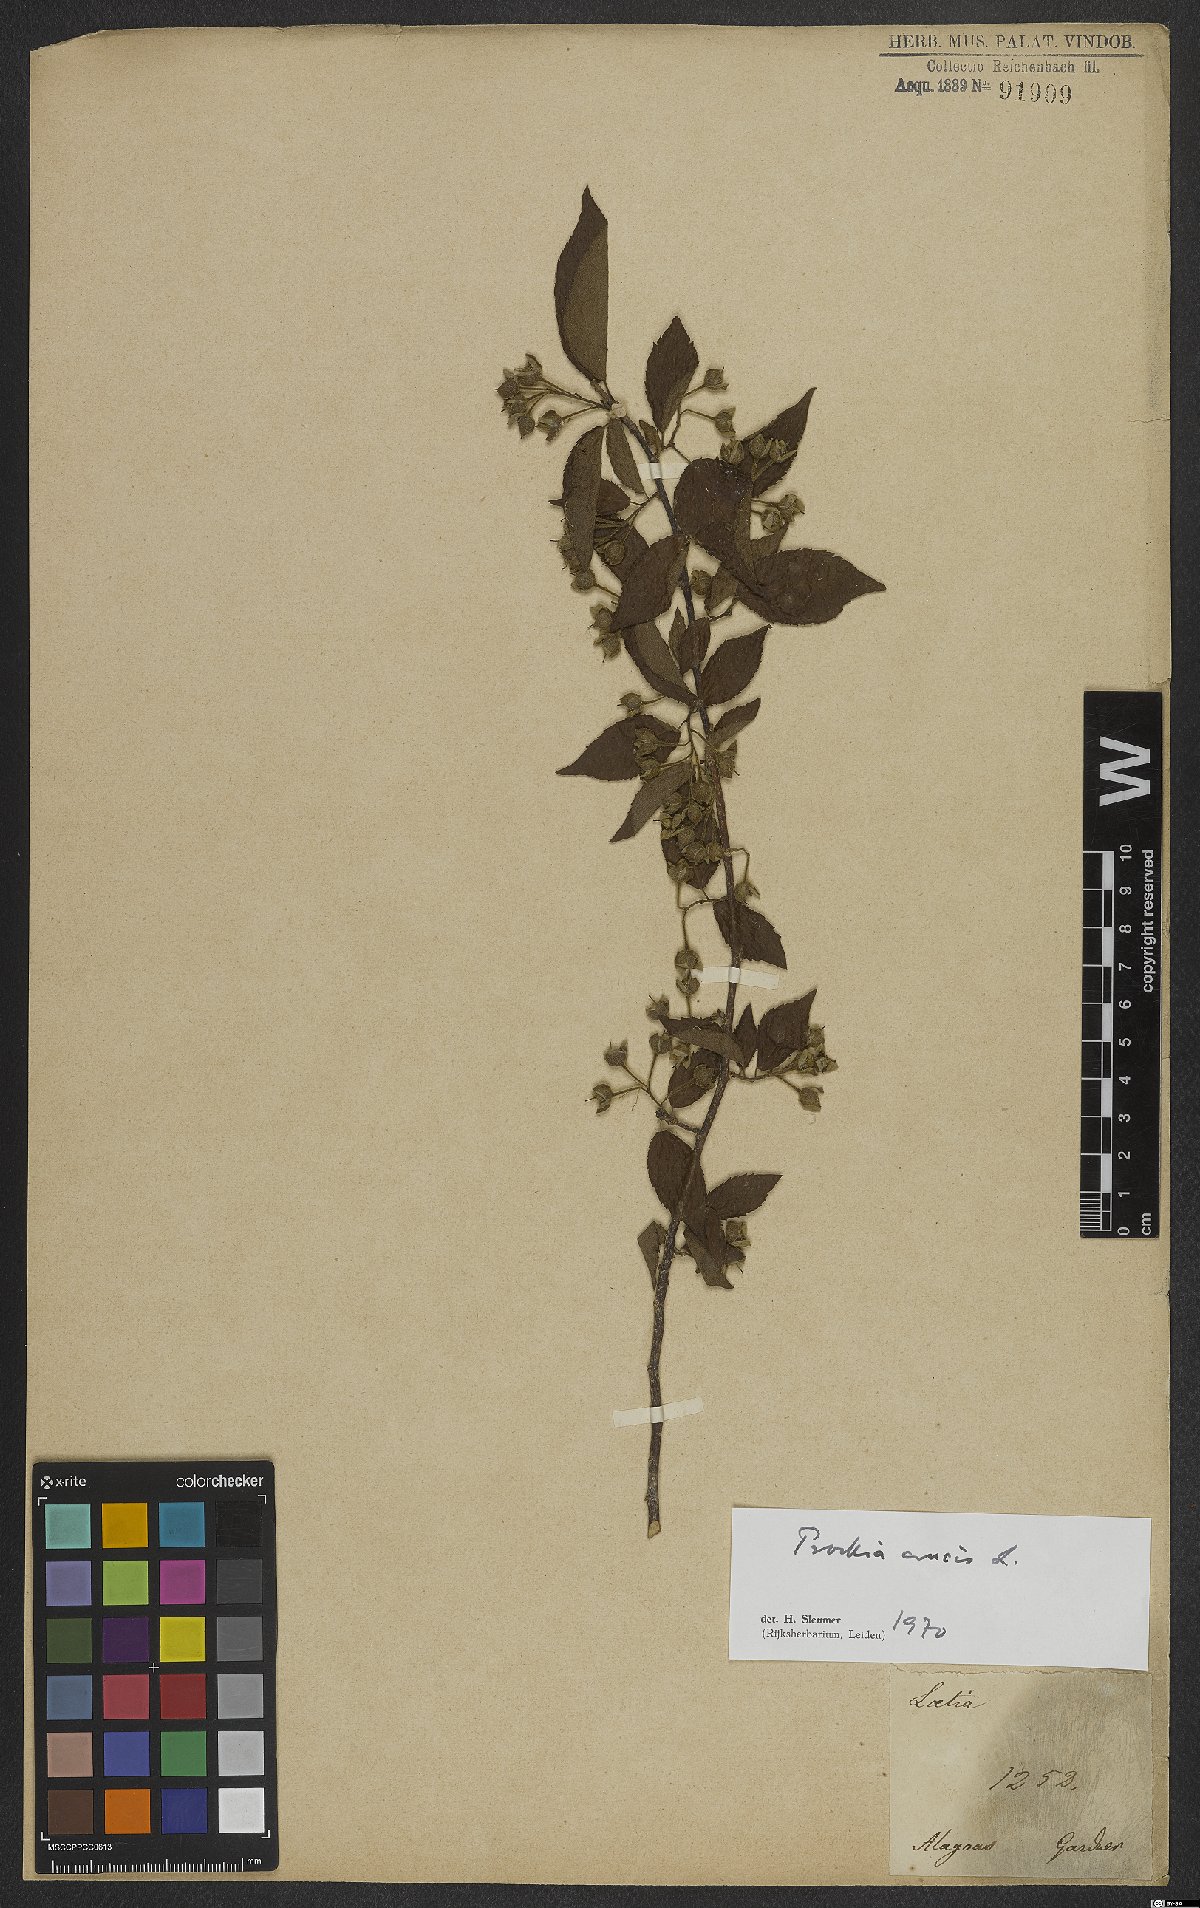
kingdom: Plantae
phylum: Tracheophyta
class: Magnoliopsida
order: Malpighiales
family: Salicaceae
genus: Prockia
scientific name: Prockia crucis
